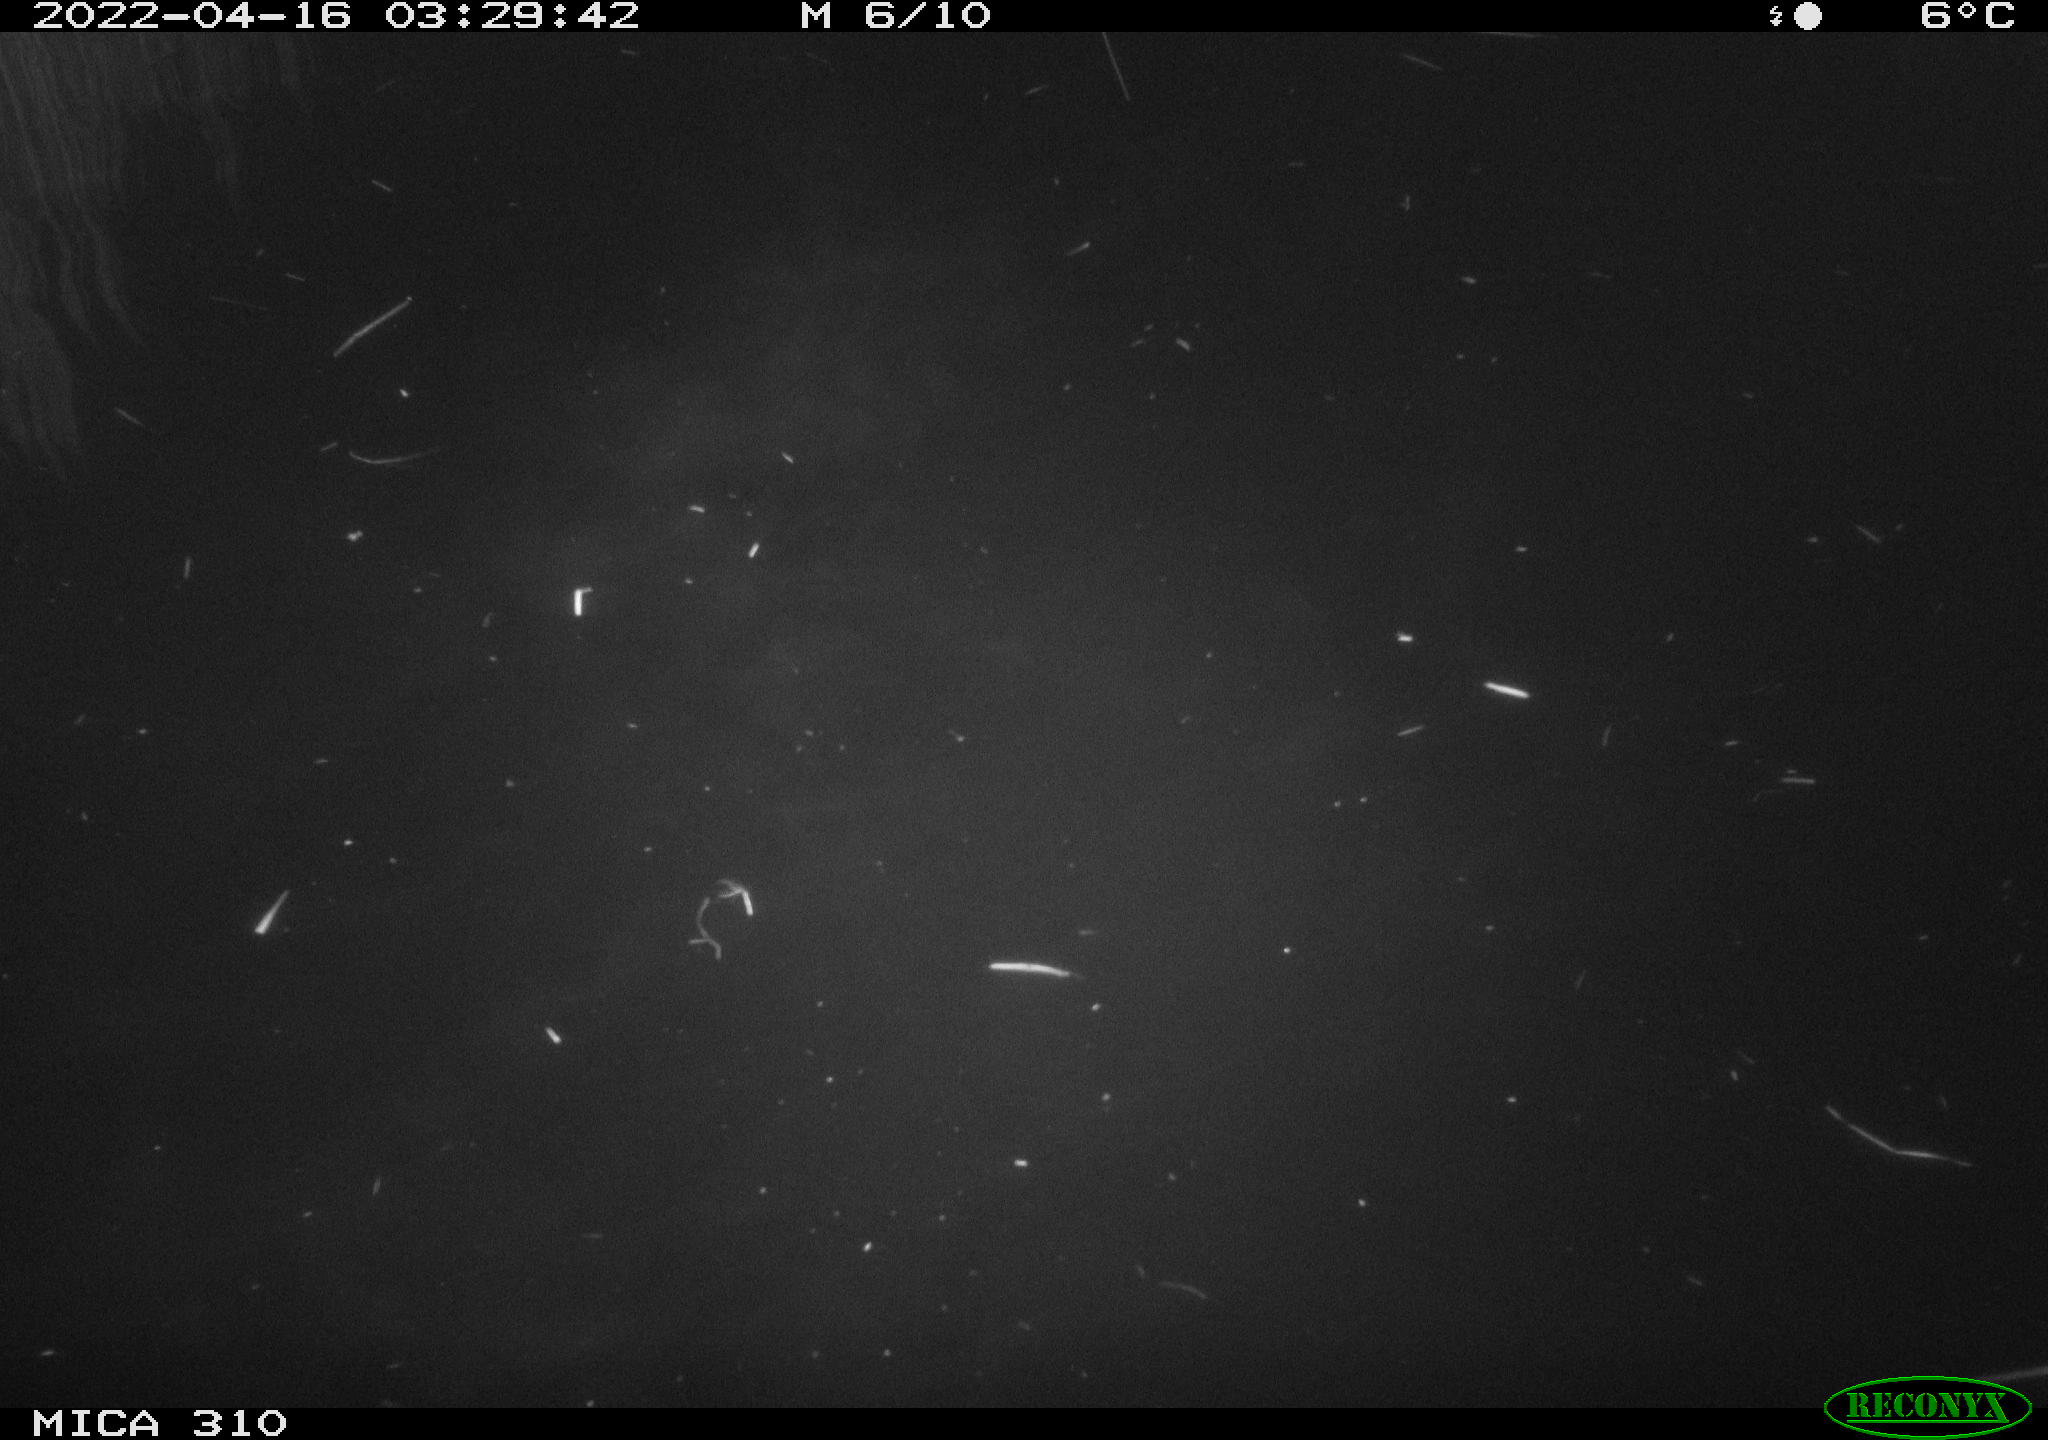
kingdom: Animalia
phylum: Chordata
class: Aves
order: Anseriformes
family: Anatidae
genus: Anas
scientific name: Anas platyrhynchos
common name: Mallard
